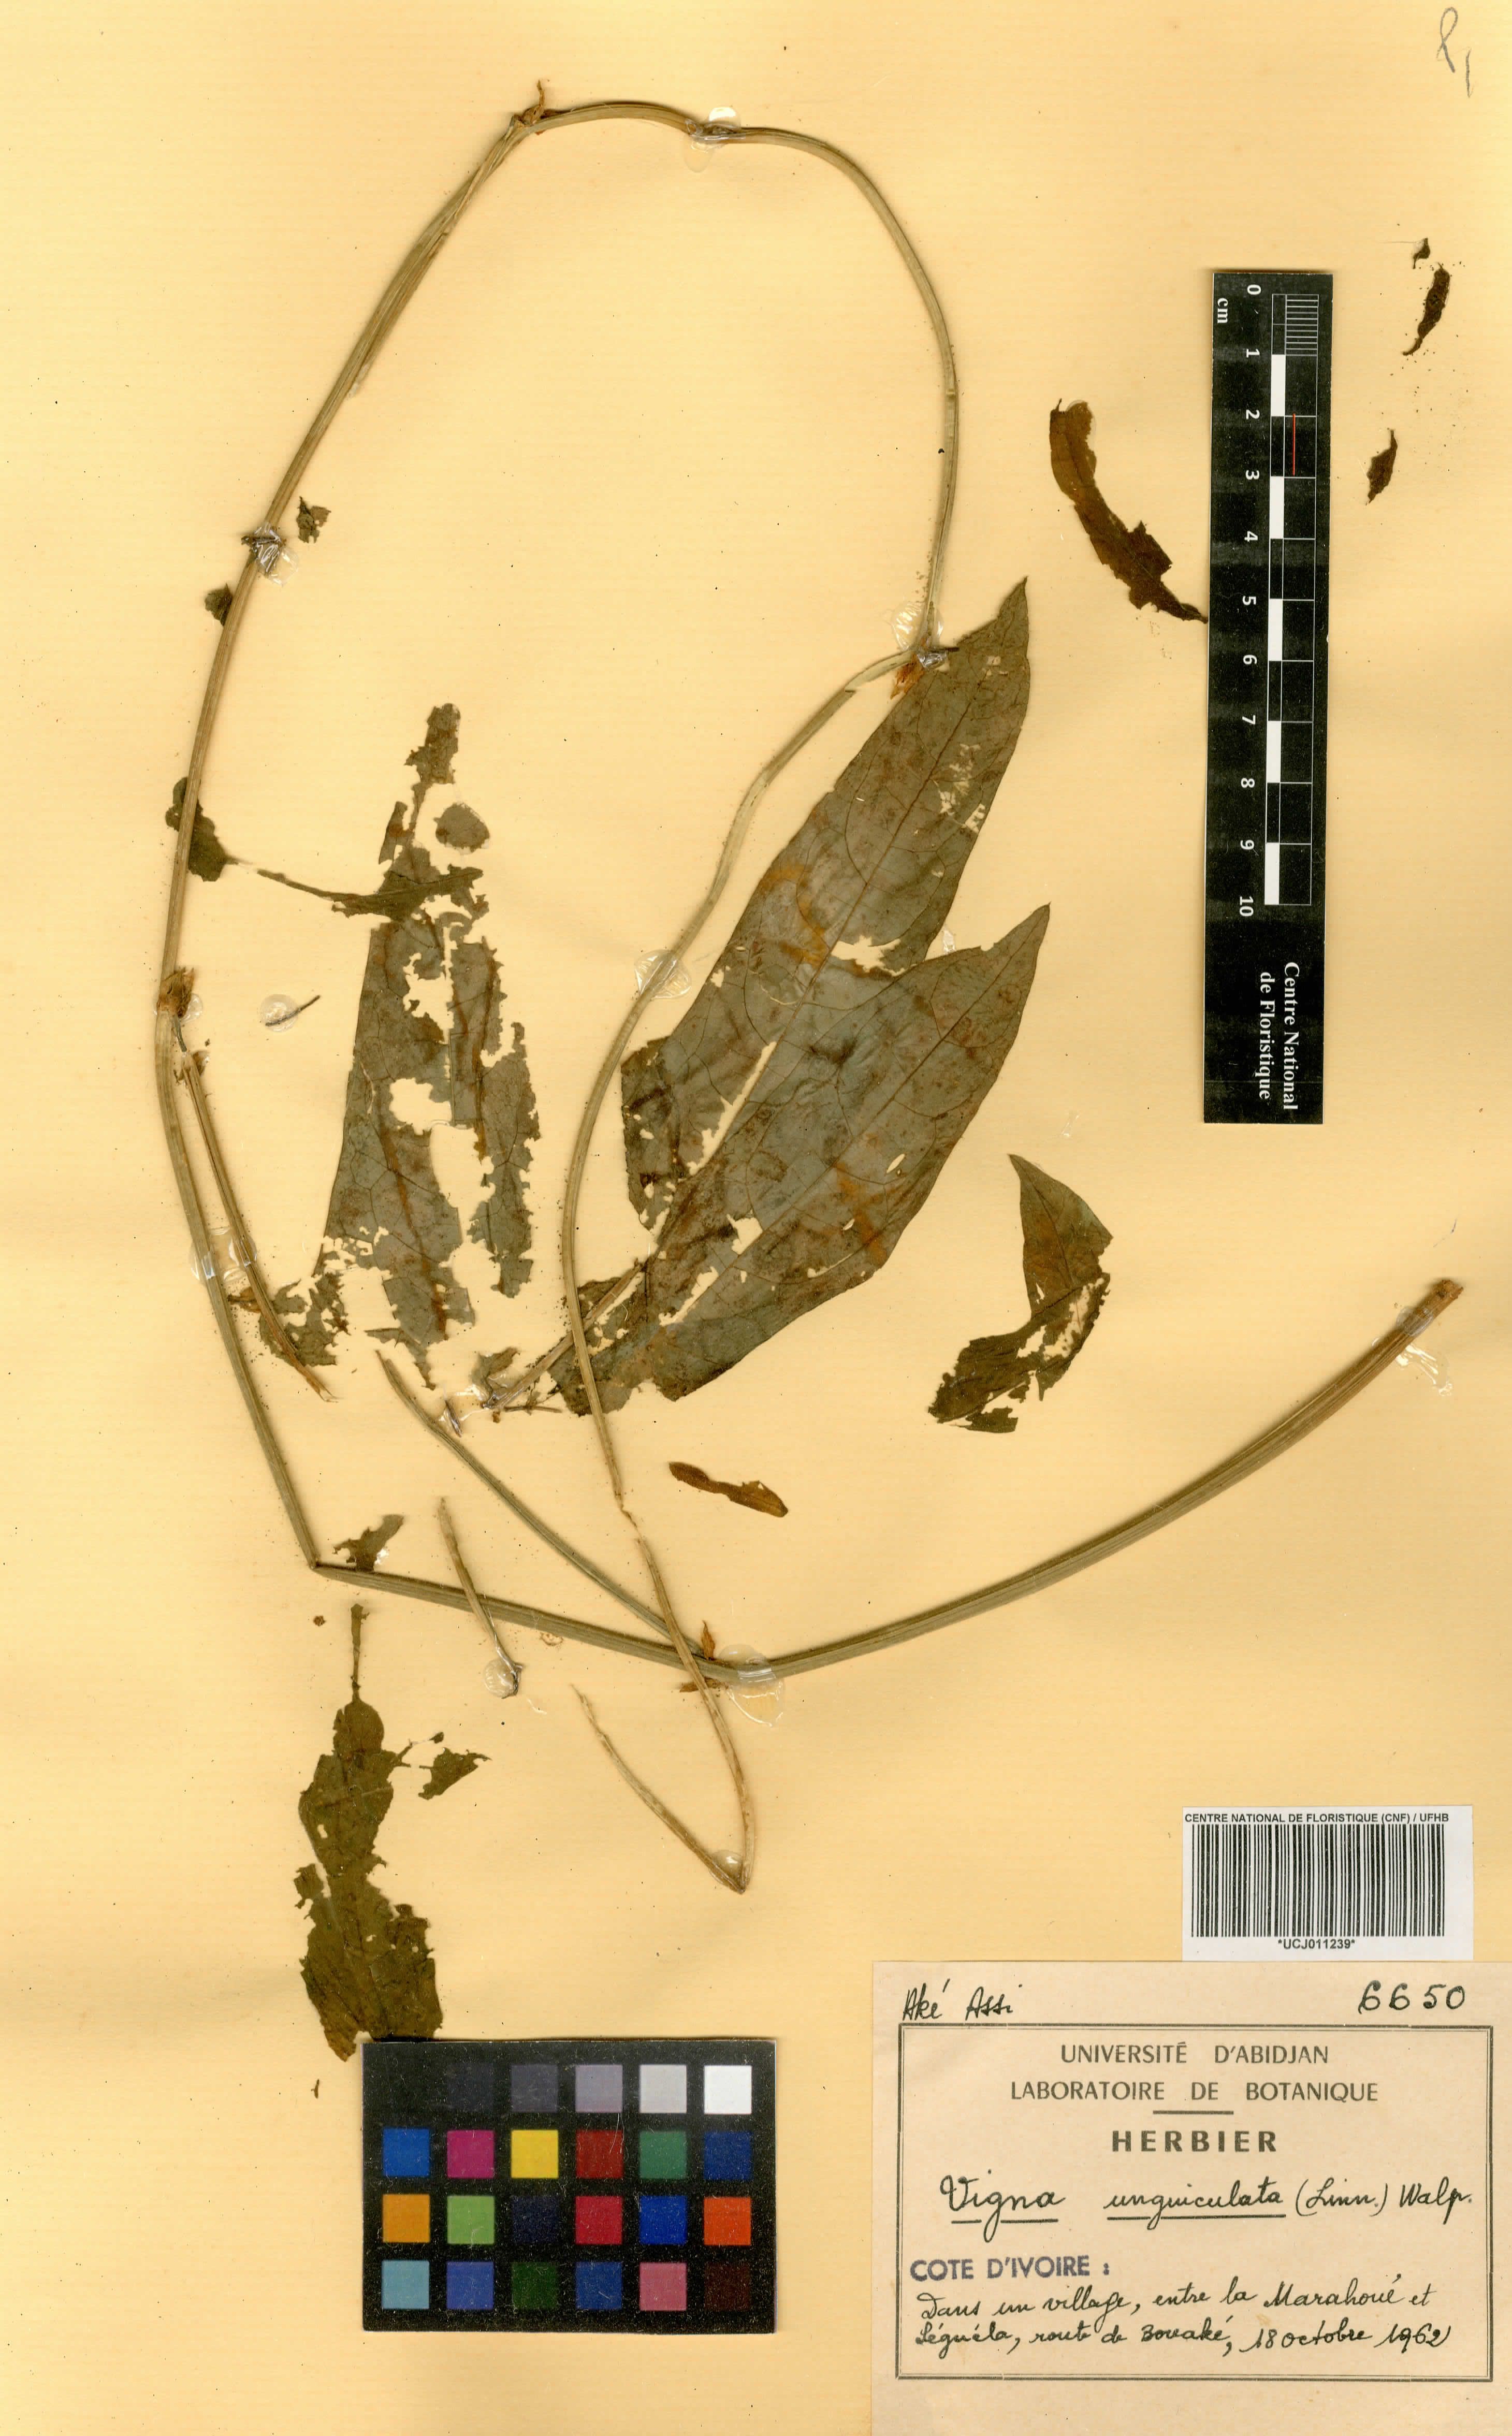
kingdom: Plantae
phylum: Tracheophyta
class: Magnoliopsida
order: Fabales
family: Fabaceae
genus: Vigna
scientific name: Vigna unguiculata
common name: Cowpea
